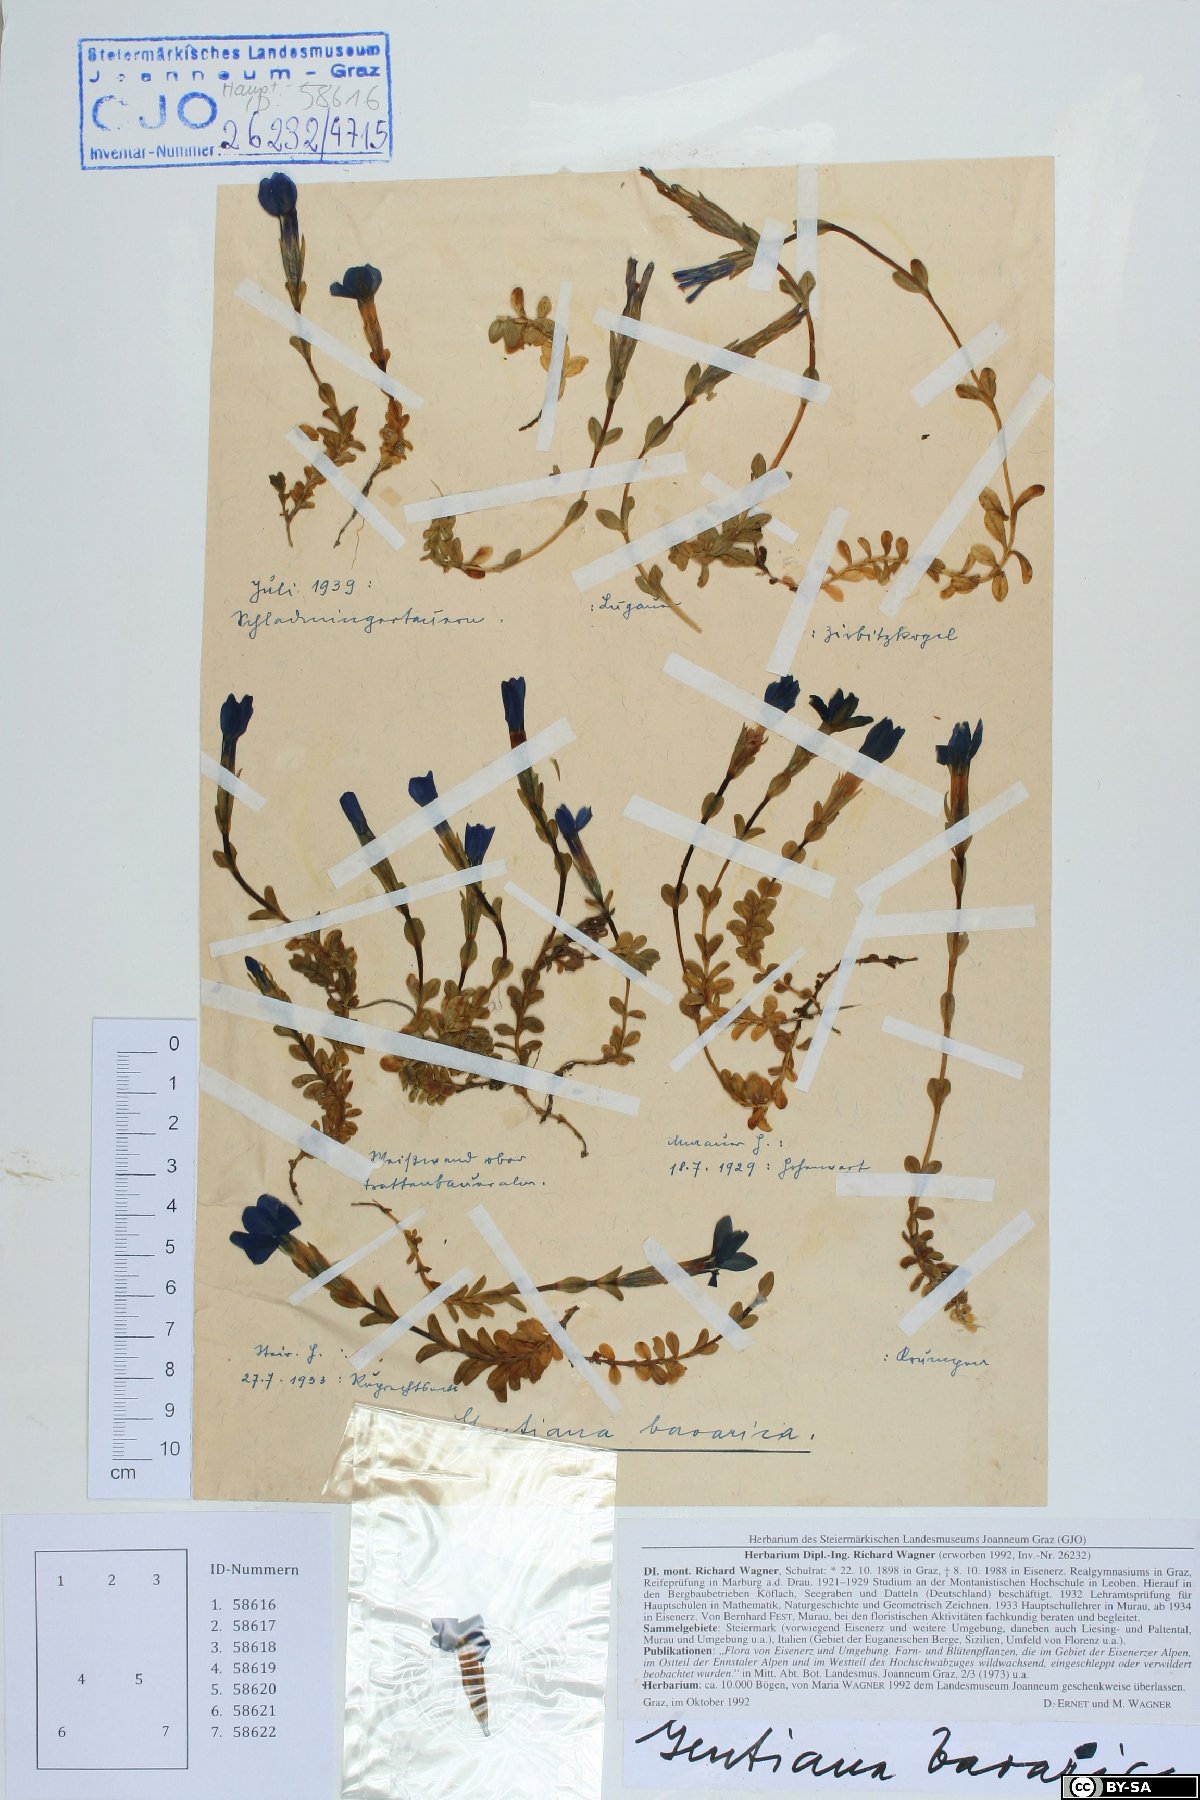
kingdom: Plantae
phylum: Tracheophyta
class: Magnoliopsida
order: Gentianales
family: Gentianaceae
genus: Gentiana
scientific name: Gentiana bavarica
